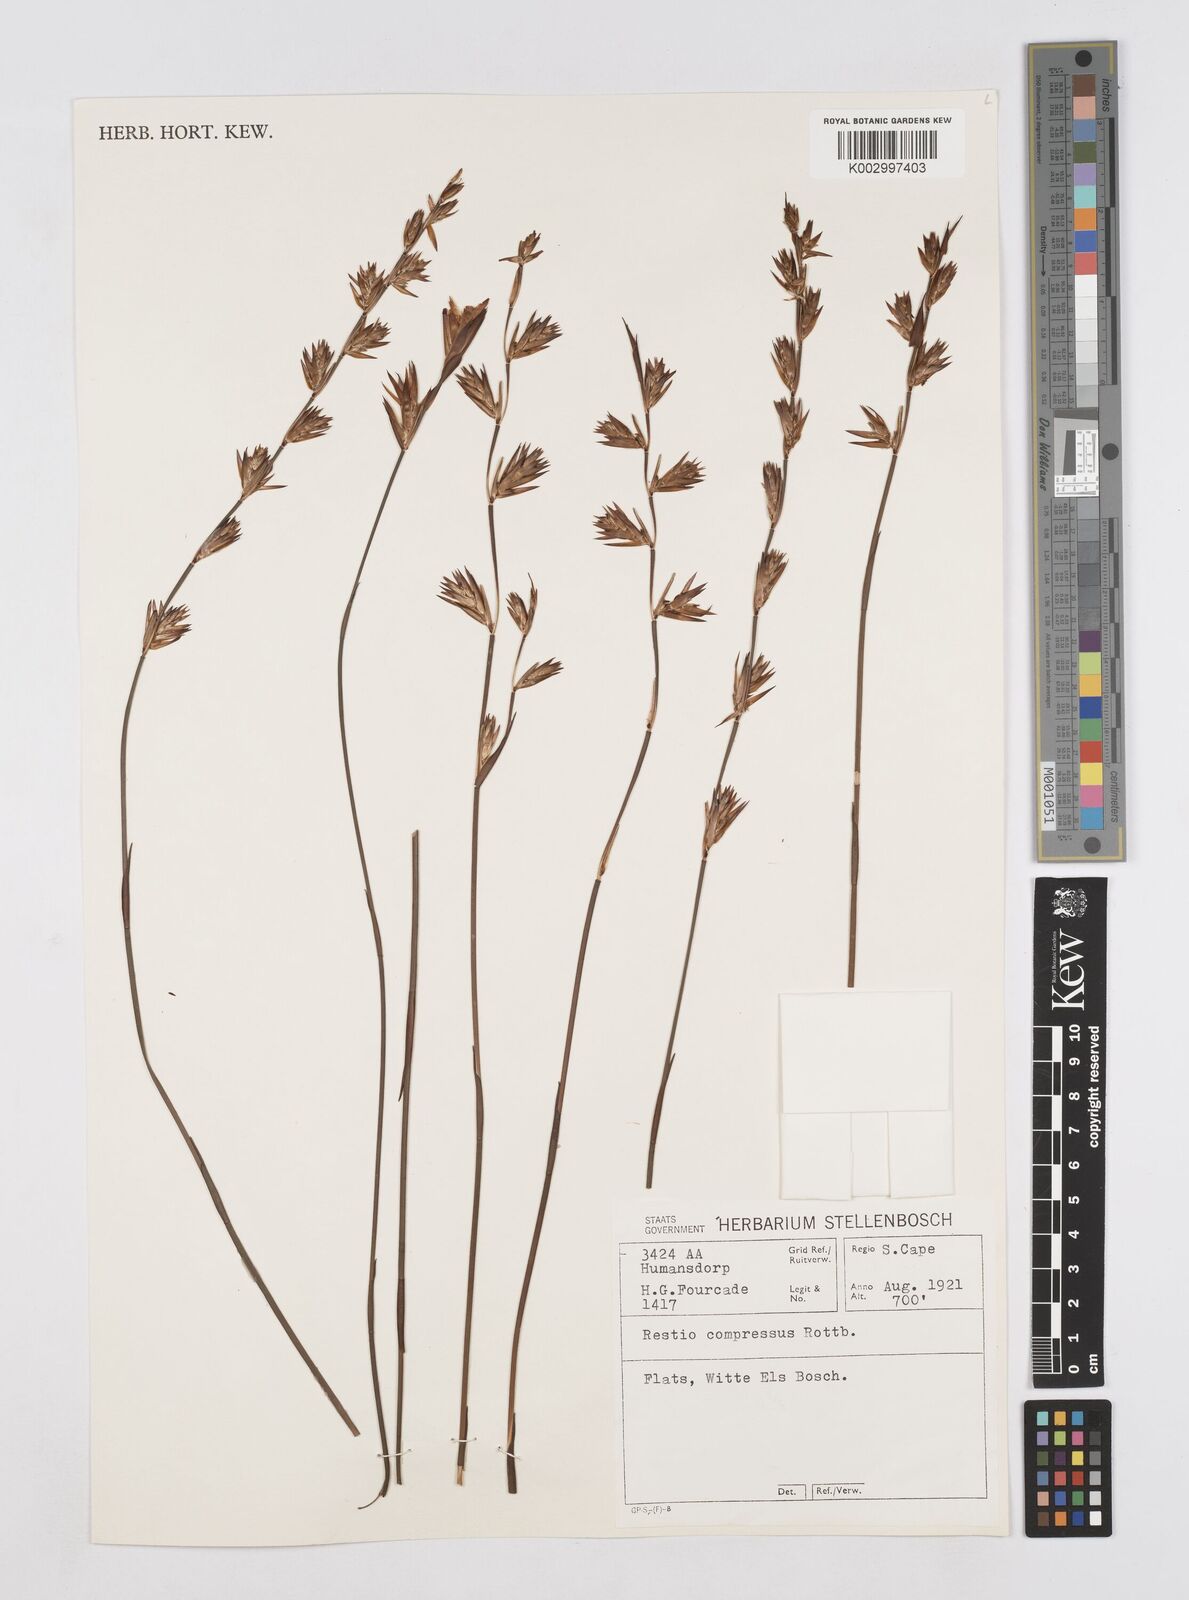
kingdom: Plantae
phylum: Tracheophyta
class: Liliopsida
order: Poales
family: Restionaceae
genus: Platycaulos
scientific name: Platycaulos compressus
